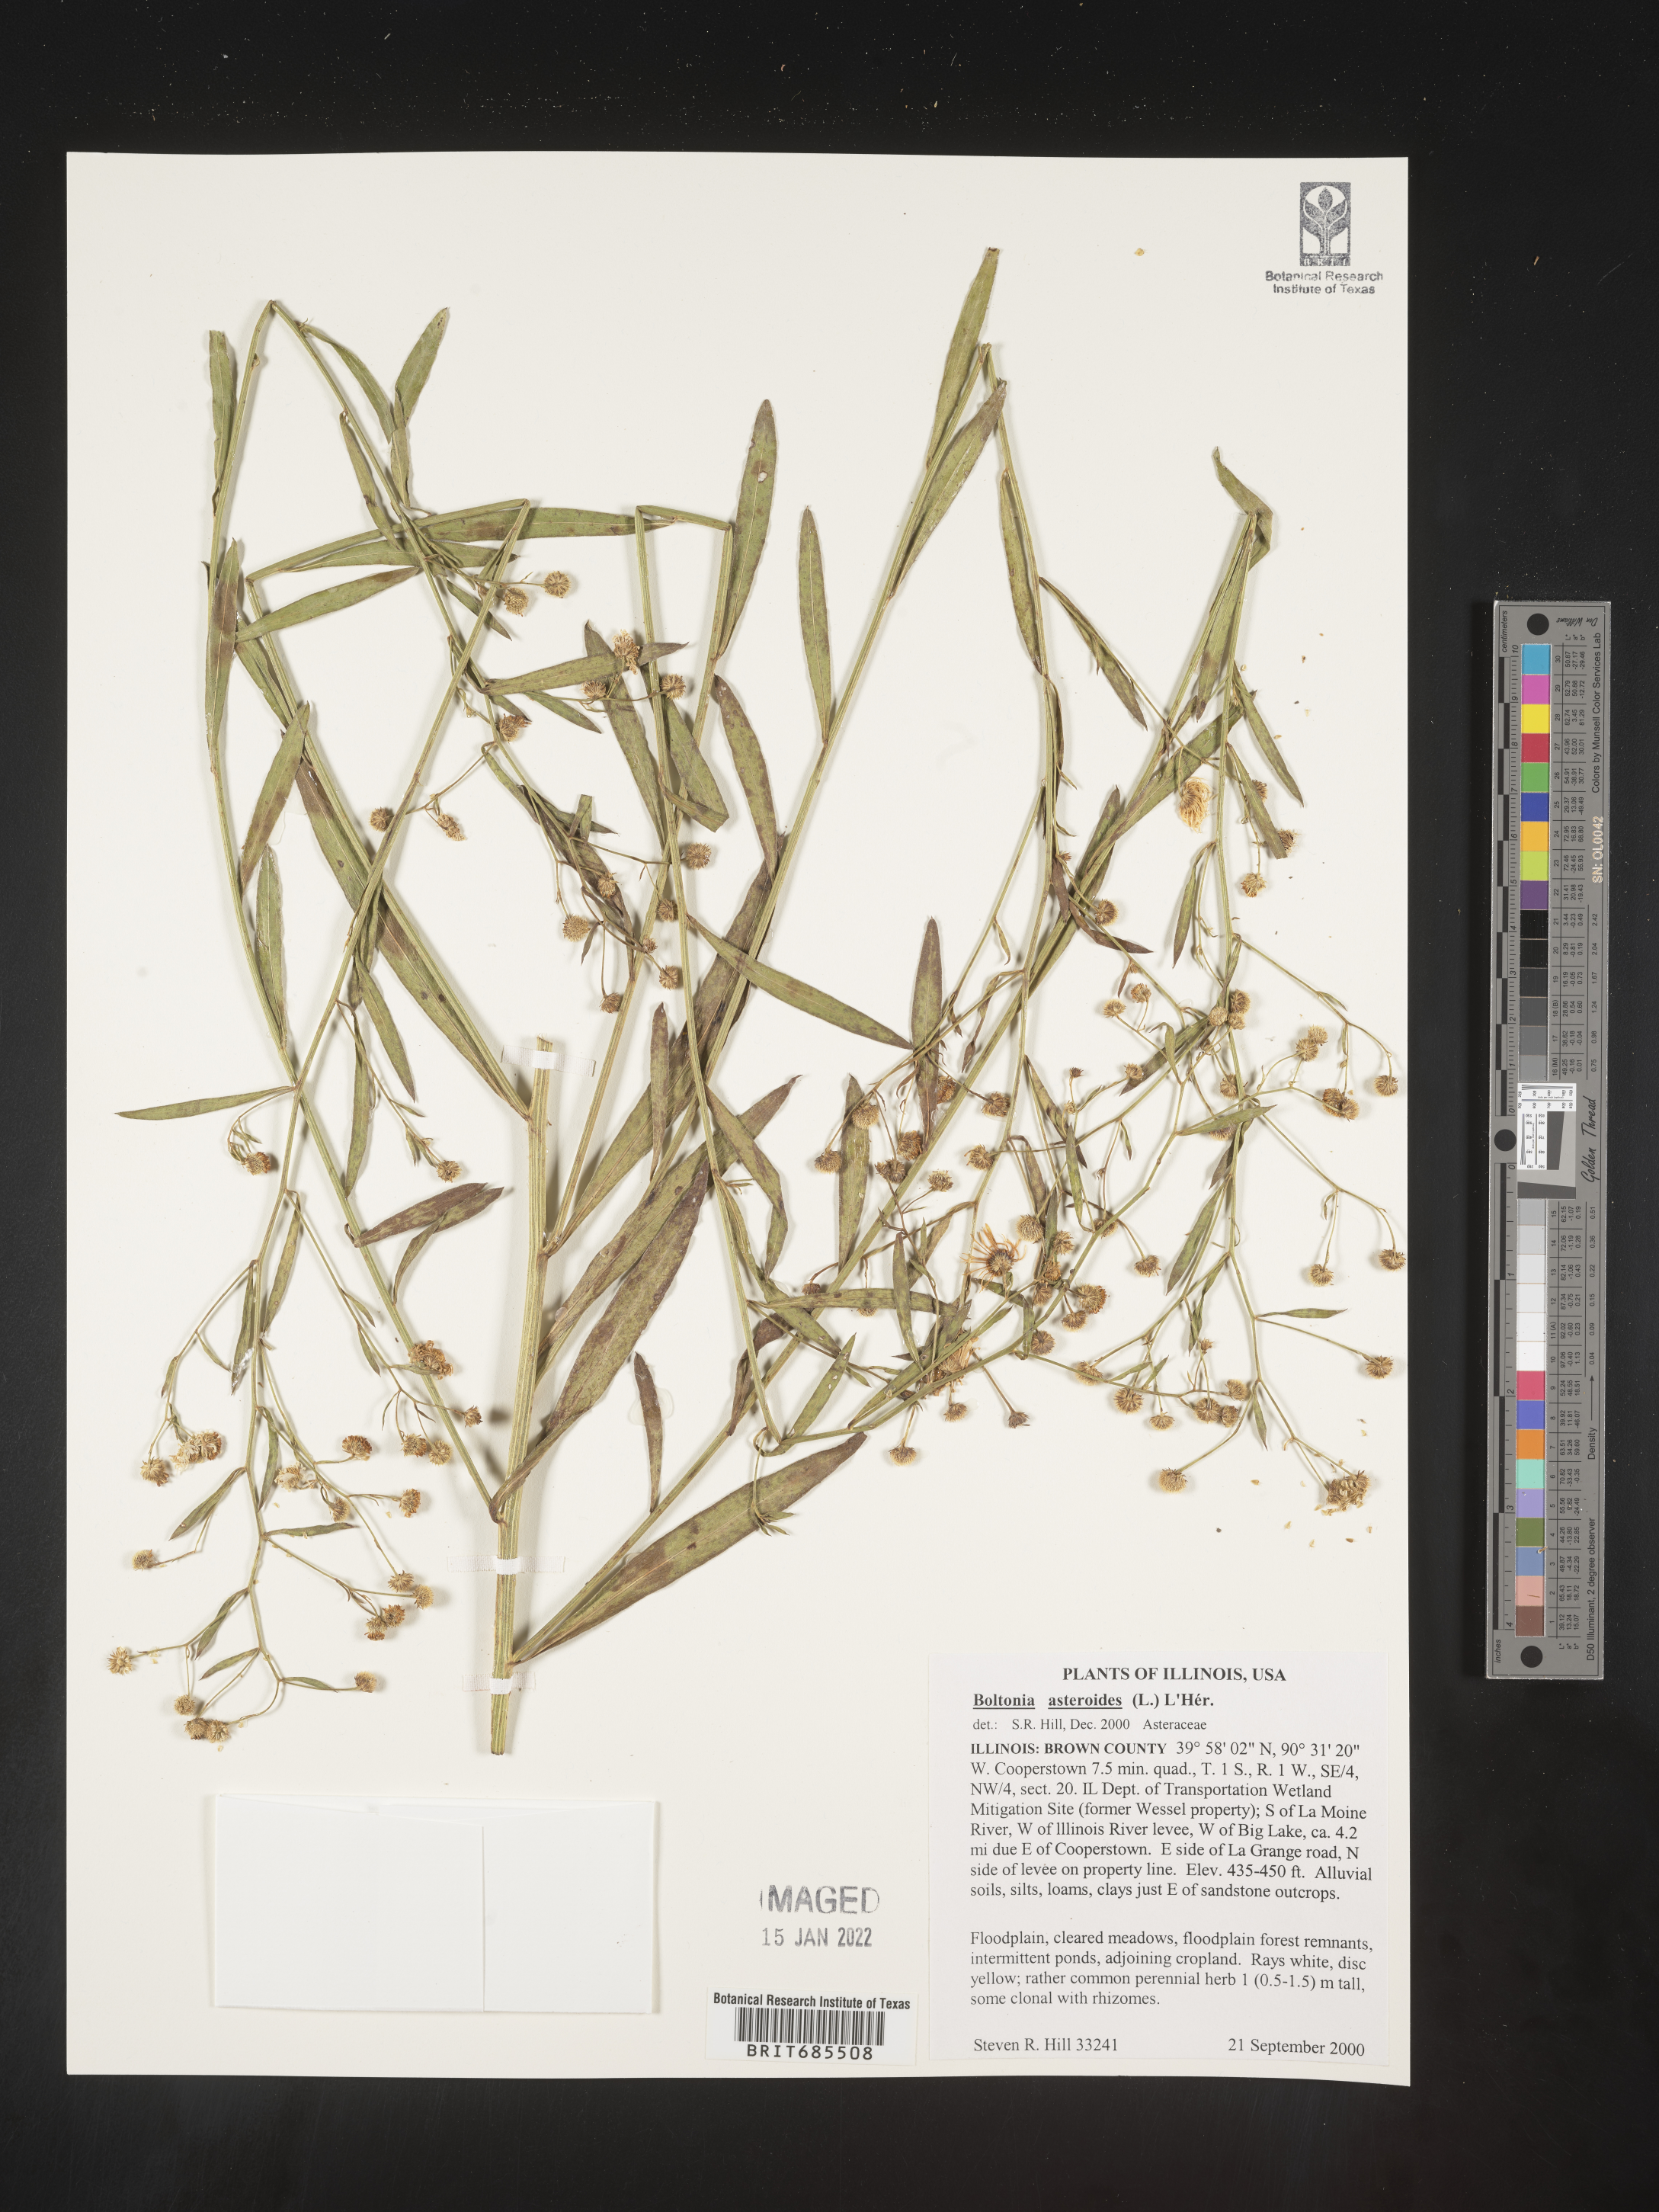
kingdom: Plantae
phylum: Tracheophyta
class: Magnoliopsida
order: Asterales
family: Asteraceae
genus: Boltonia
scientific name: Boltonia asteroides
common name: False chamomile
